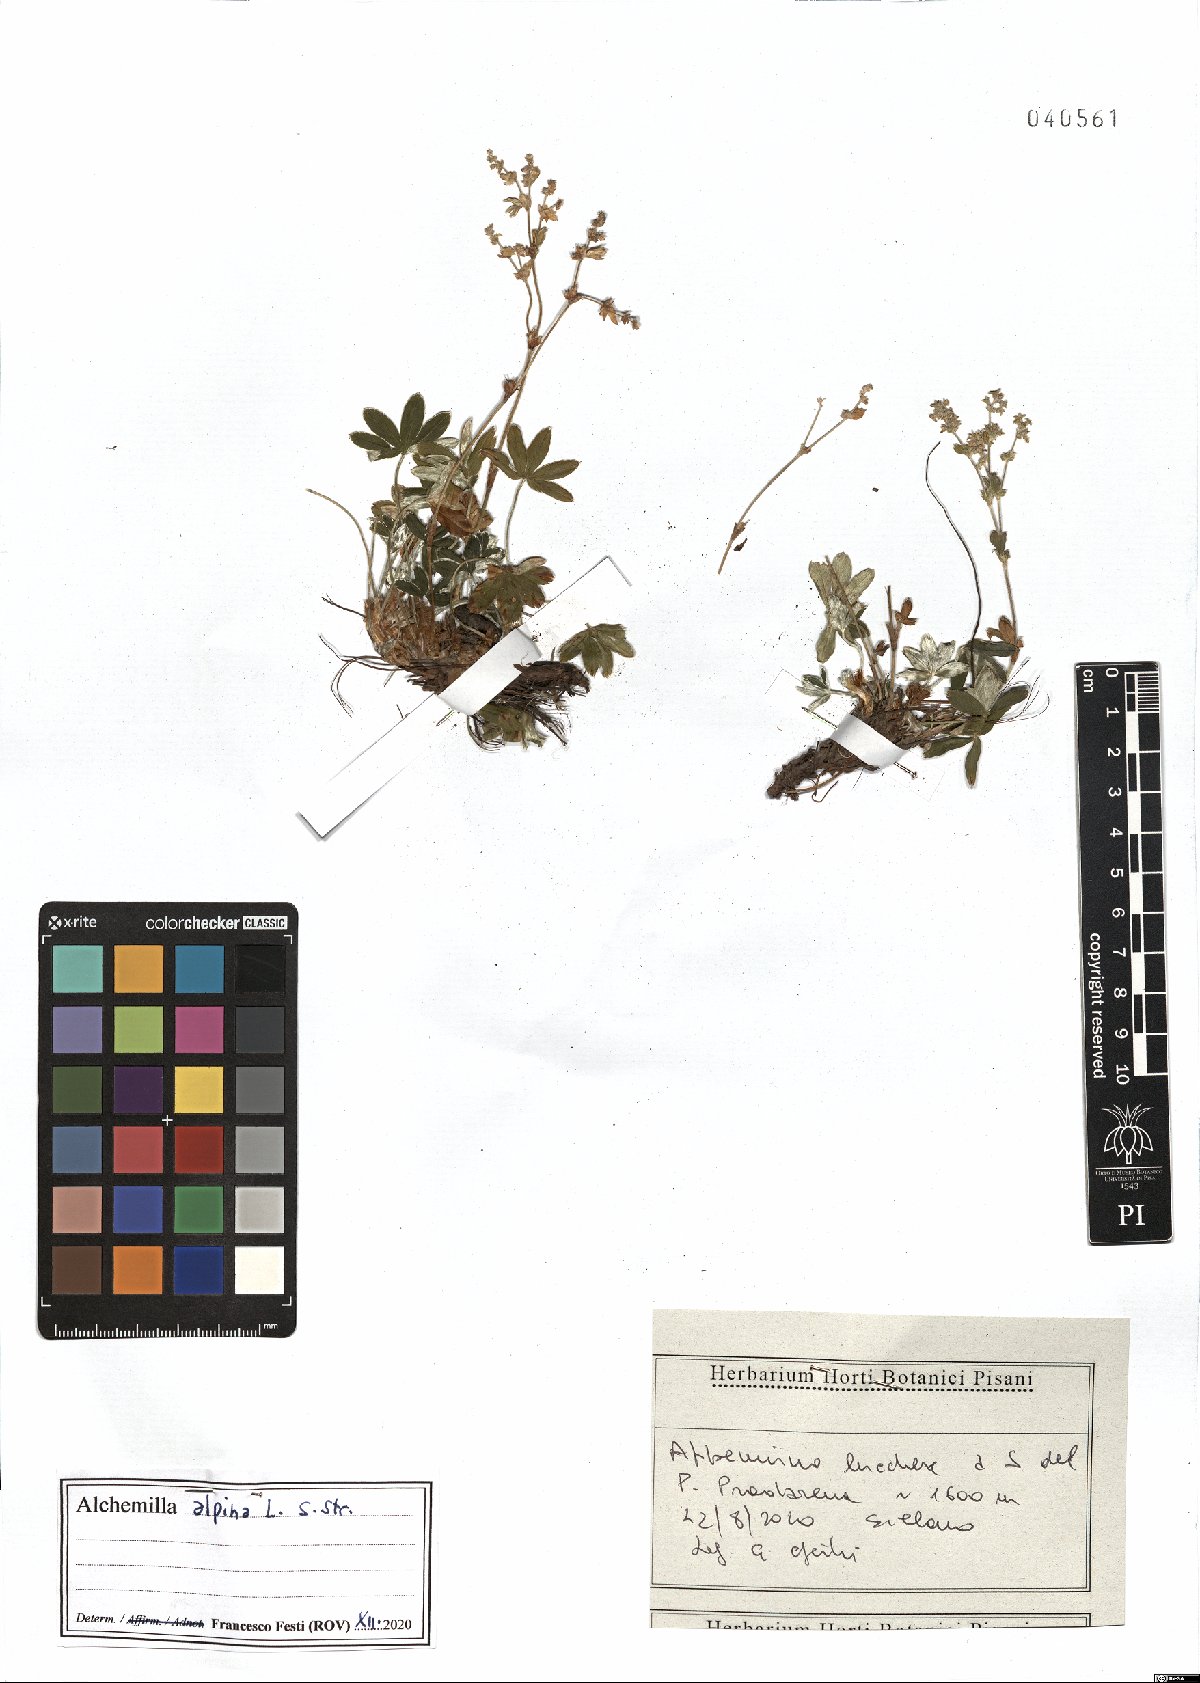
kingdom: Plantae
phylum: Tracheophyta
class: Magnoliopsida
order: Rosales
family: Rosaceae
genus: Alchemilla
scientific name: Alchemilla alpina
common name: Alpine lady's-mantle
